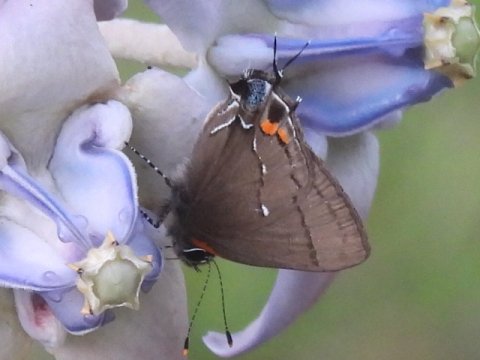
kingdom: Animalia
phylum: Arthropoda
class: Insecta
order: Lepidoptera
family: Lycaenidae
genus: Thecla
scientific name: Thecla angelia
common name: Fulvous Hairstreak
